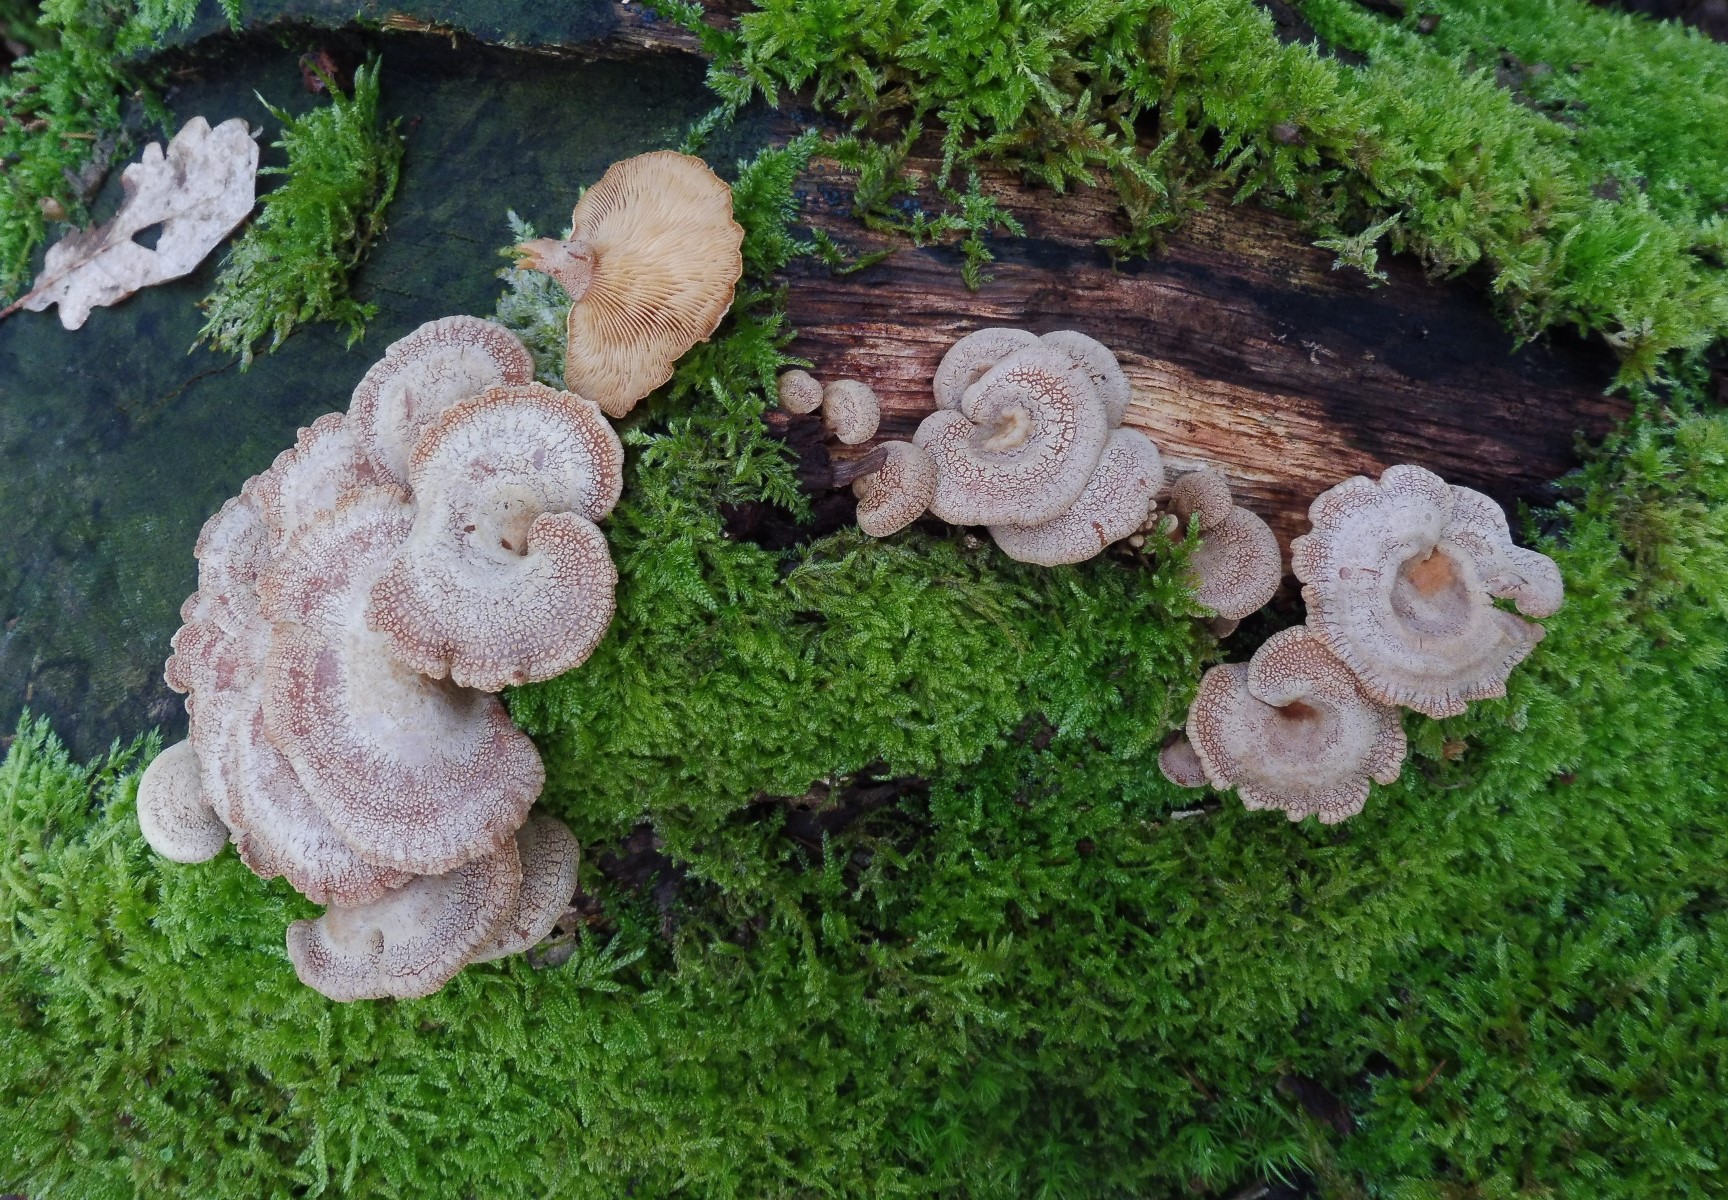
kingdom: Fungi
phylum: Basidiomycota
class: Agaricomycetes
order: Agaricales
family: Mycenaceae
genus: Panellus
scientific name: Panellus stipticus
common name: kliddet epaulethat
